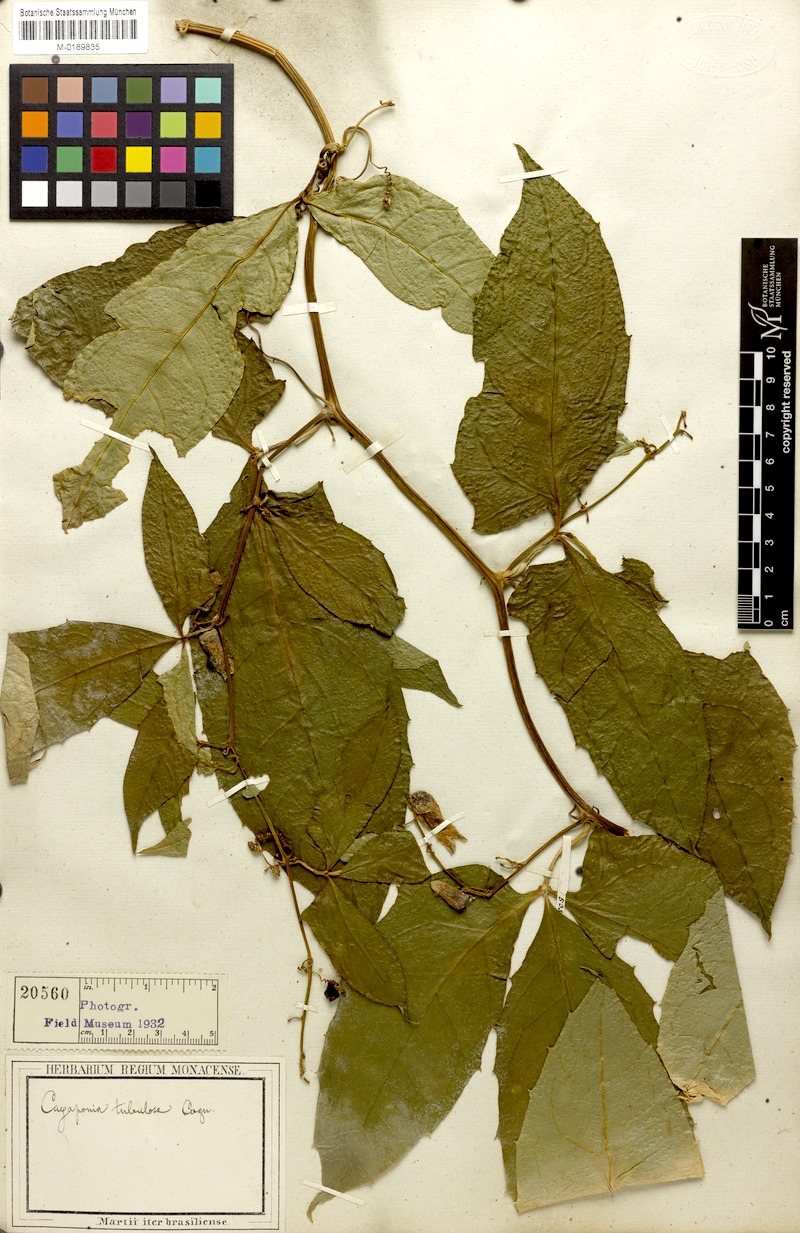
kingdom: Plantae
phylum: Tracheophyta
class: Magnoliopsida
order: Cucurbitales
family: Cucurbitaceae
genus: Cayaponia
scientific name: Cayaponia tubulosa
